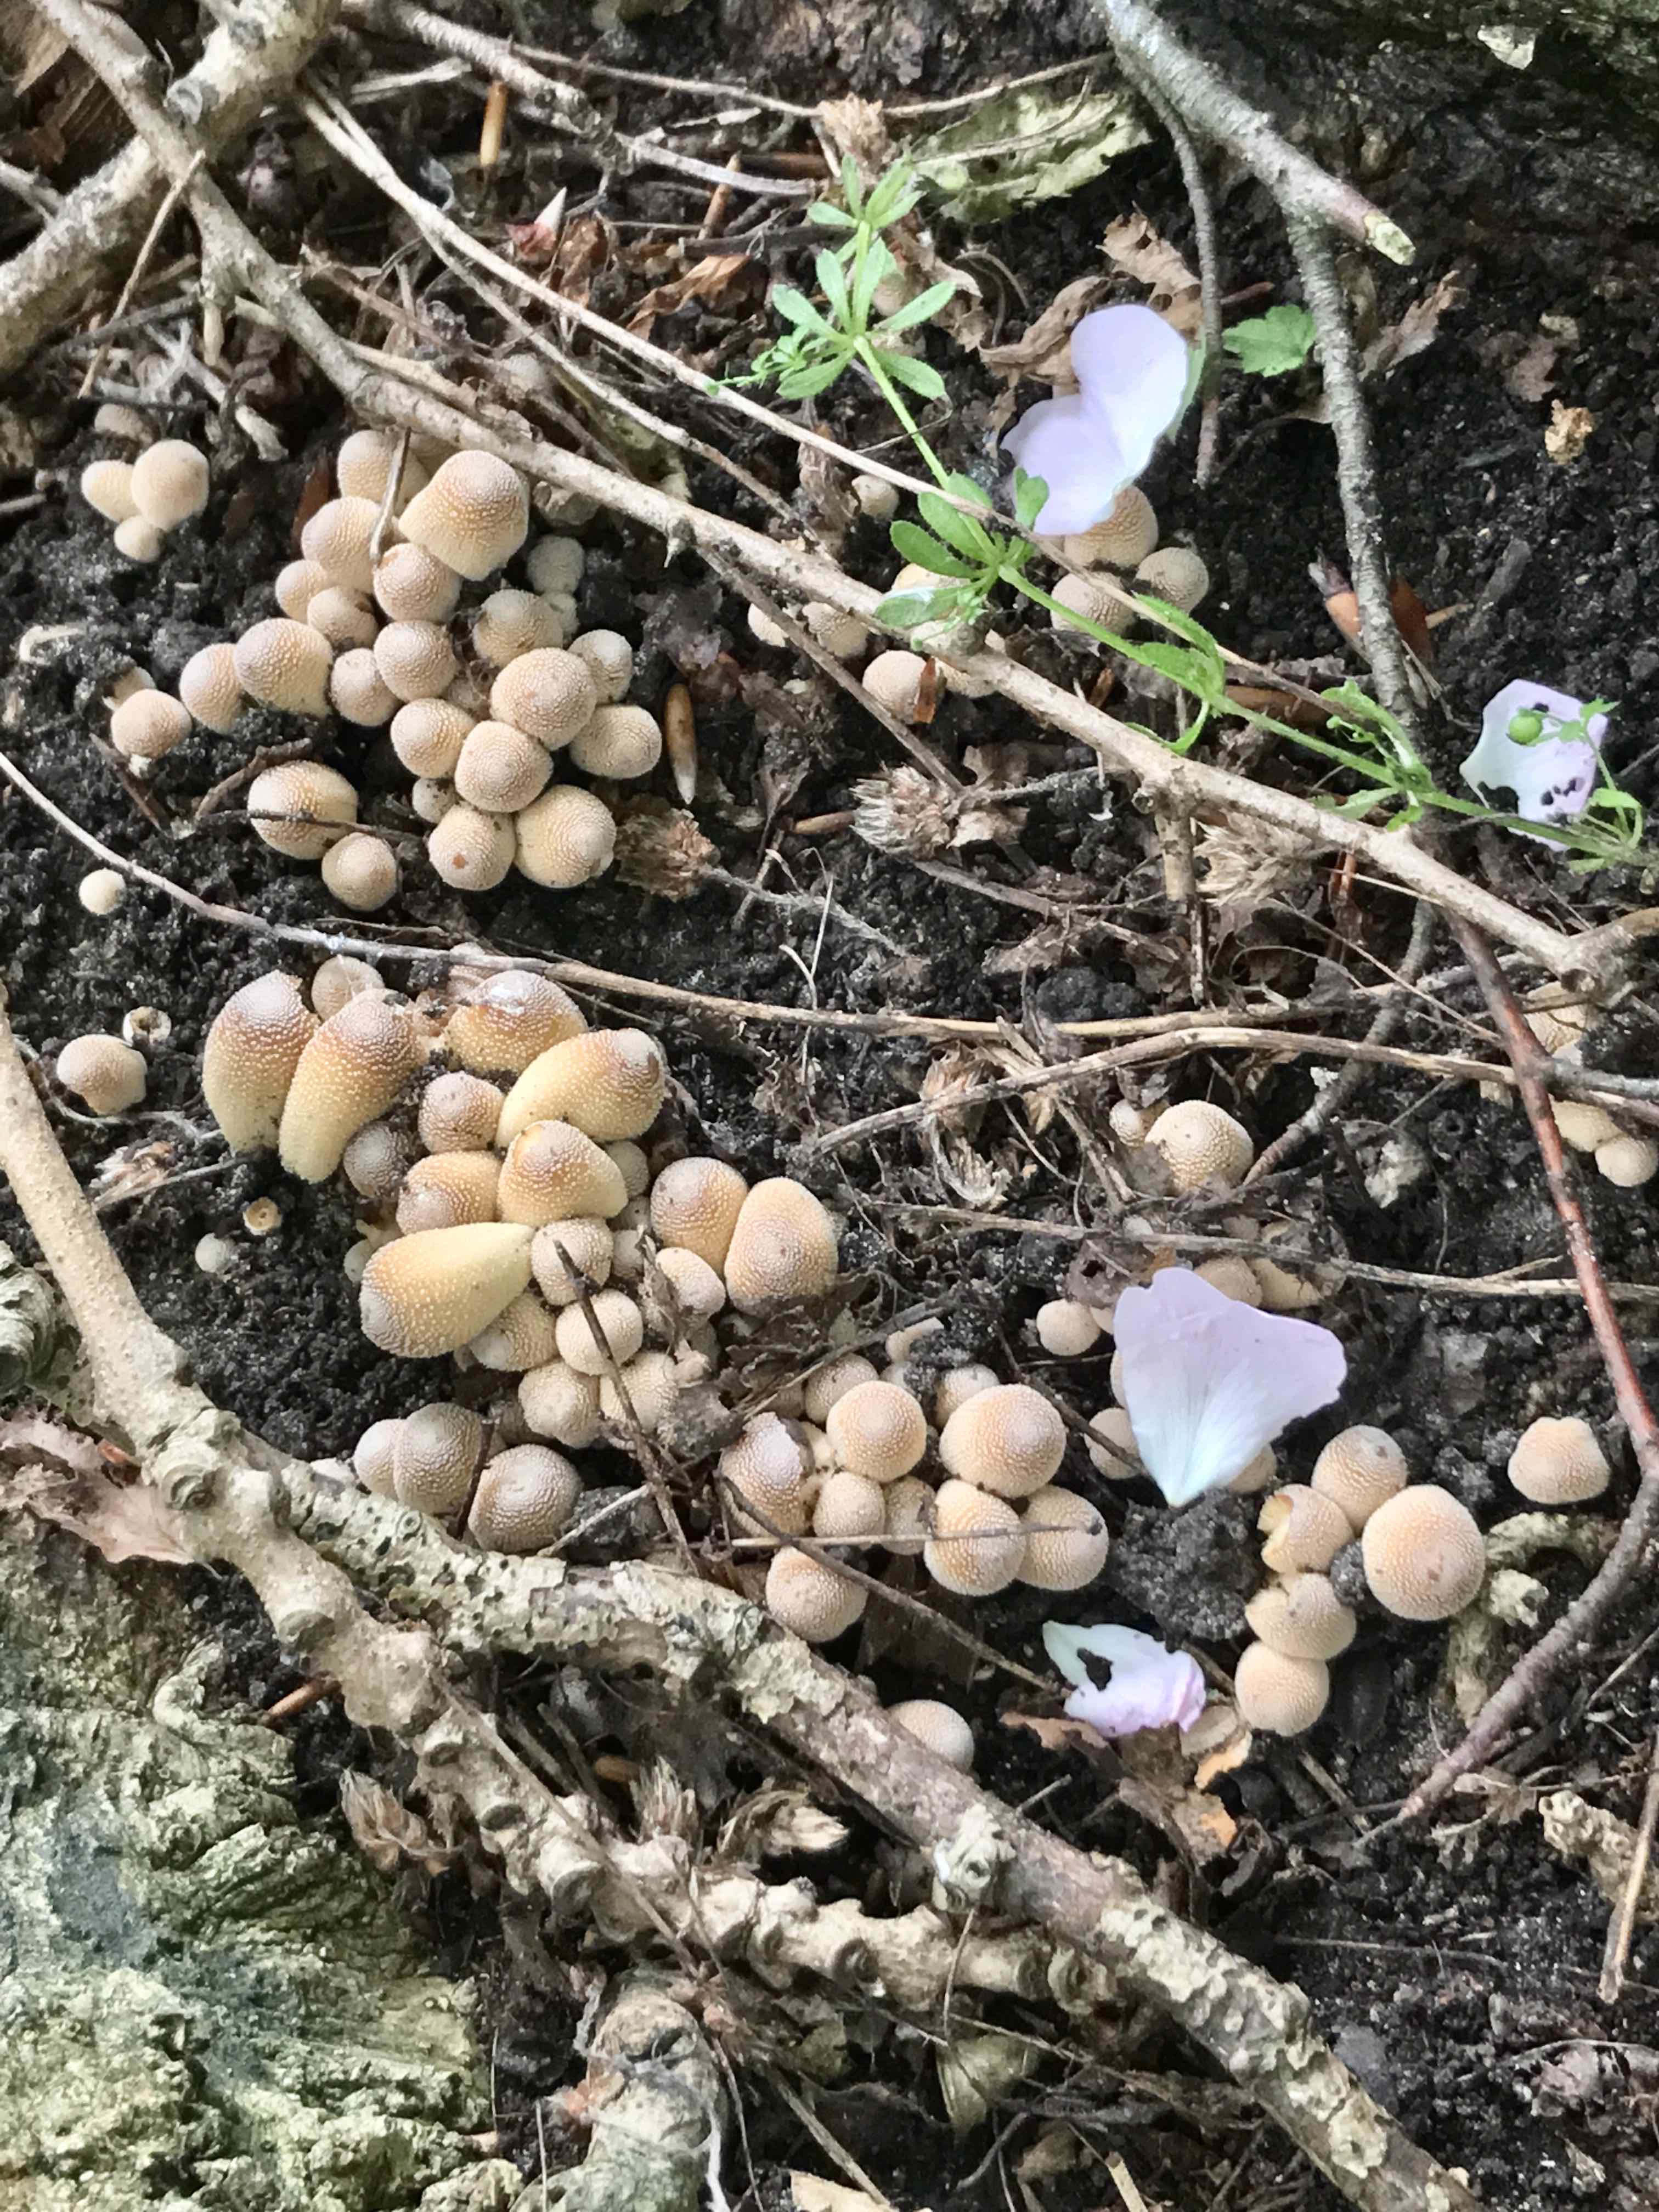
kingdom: Fungi
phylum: Basidiomycota
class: Agaricomycetes
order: Agaricales
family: Psathyrellaceae
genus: Coprinellus
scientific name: Coprinellus micaceus
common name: glimmer-blækhat
